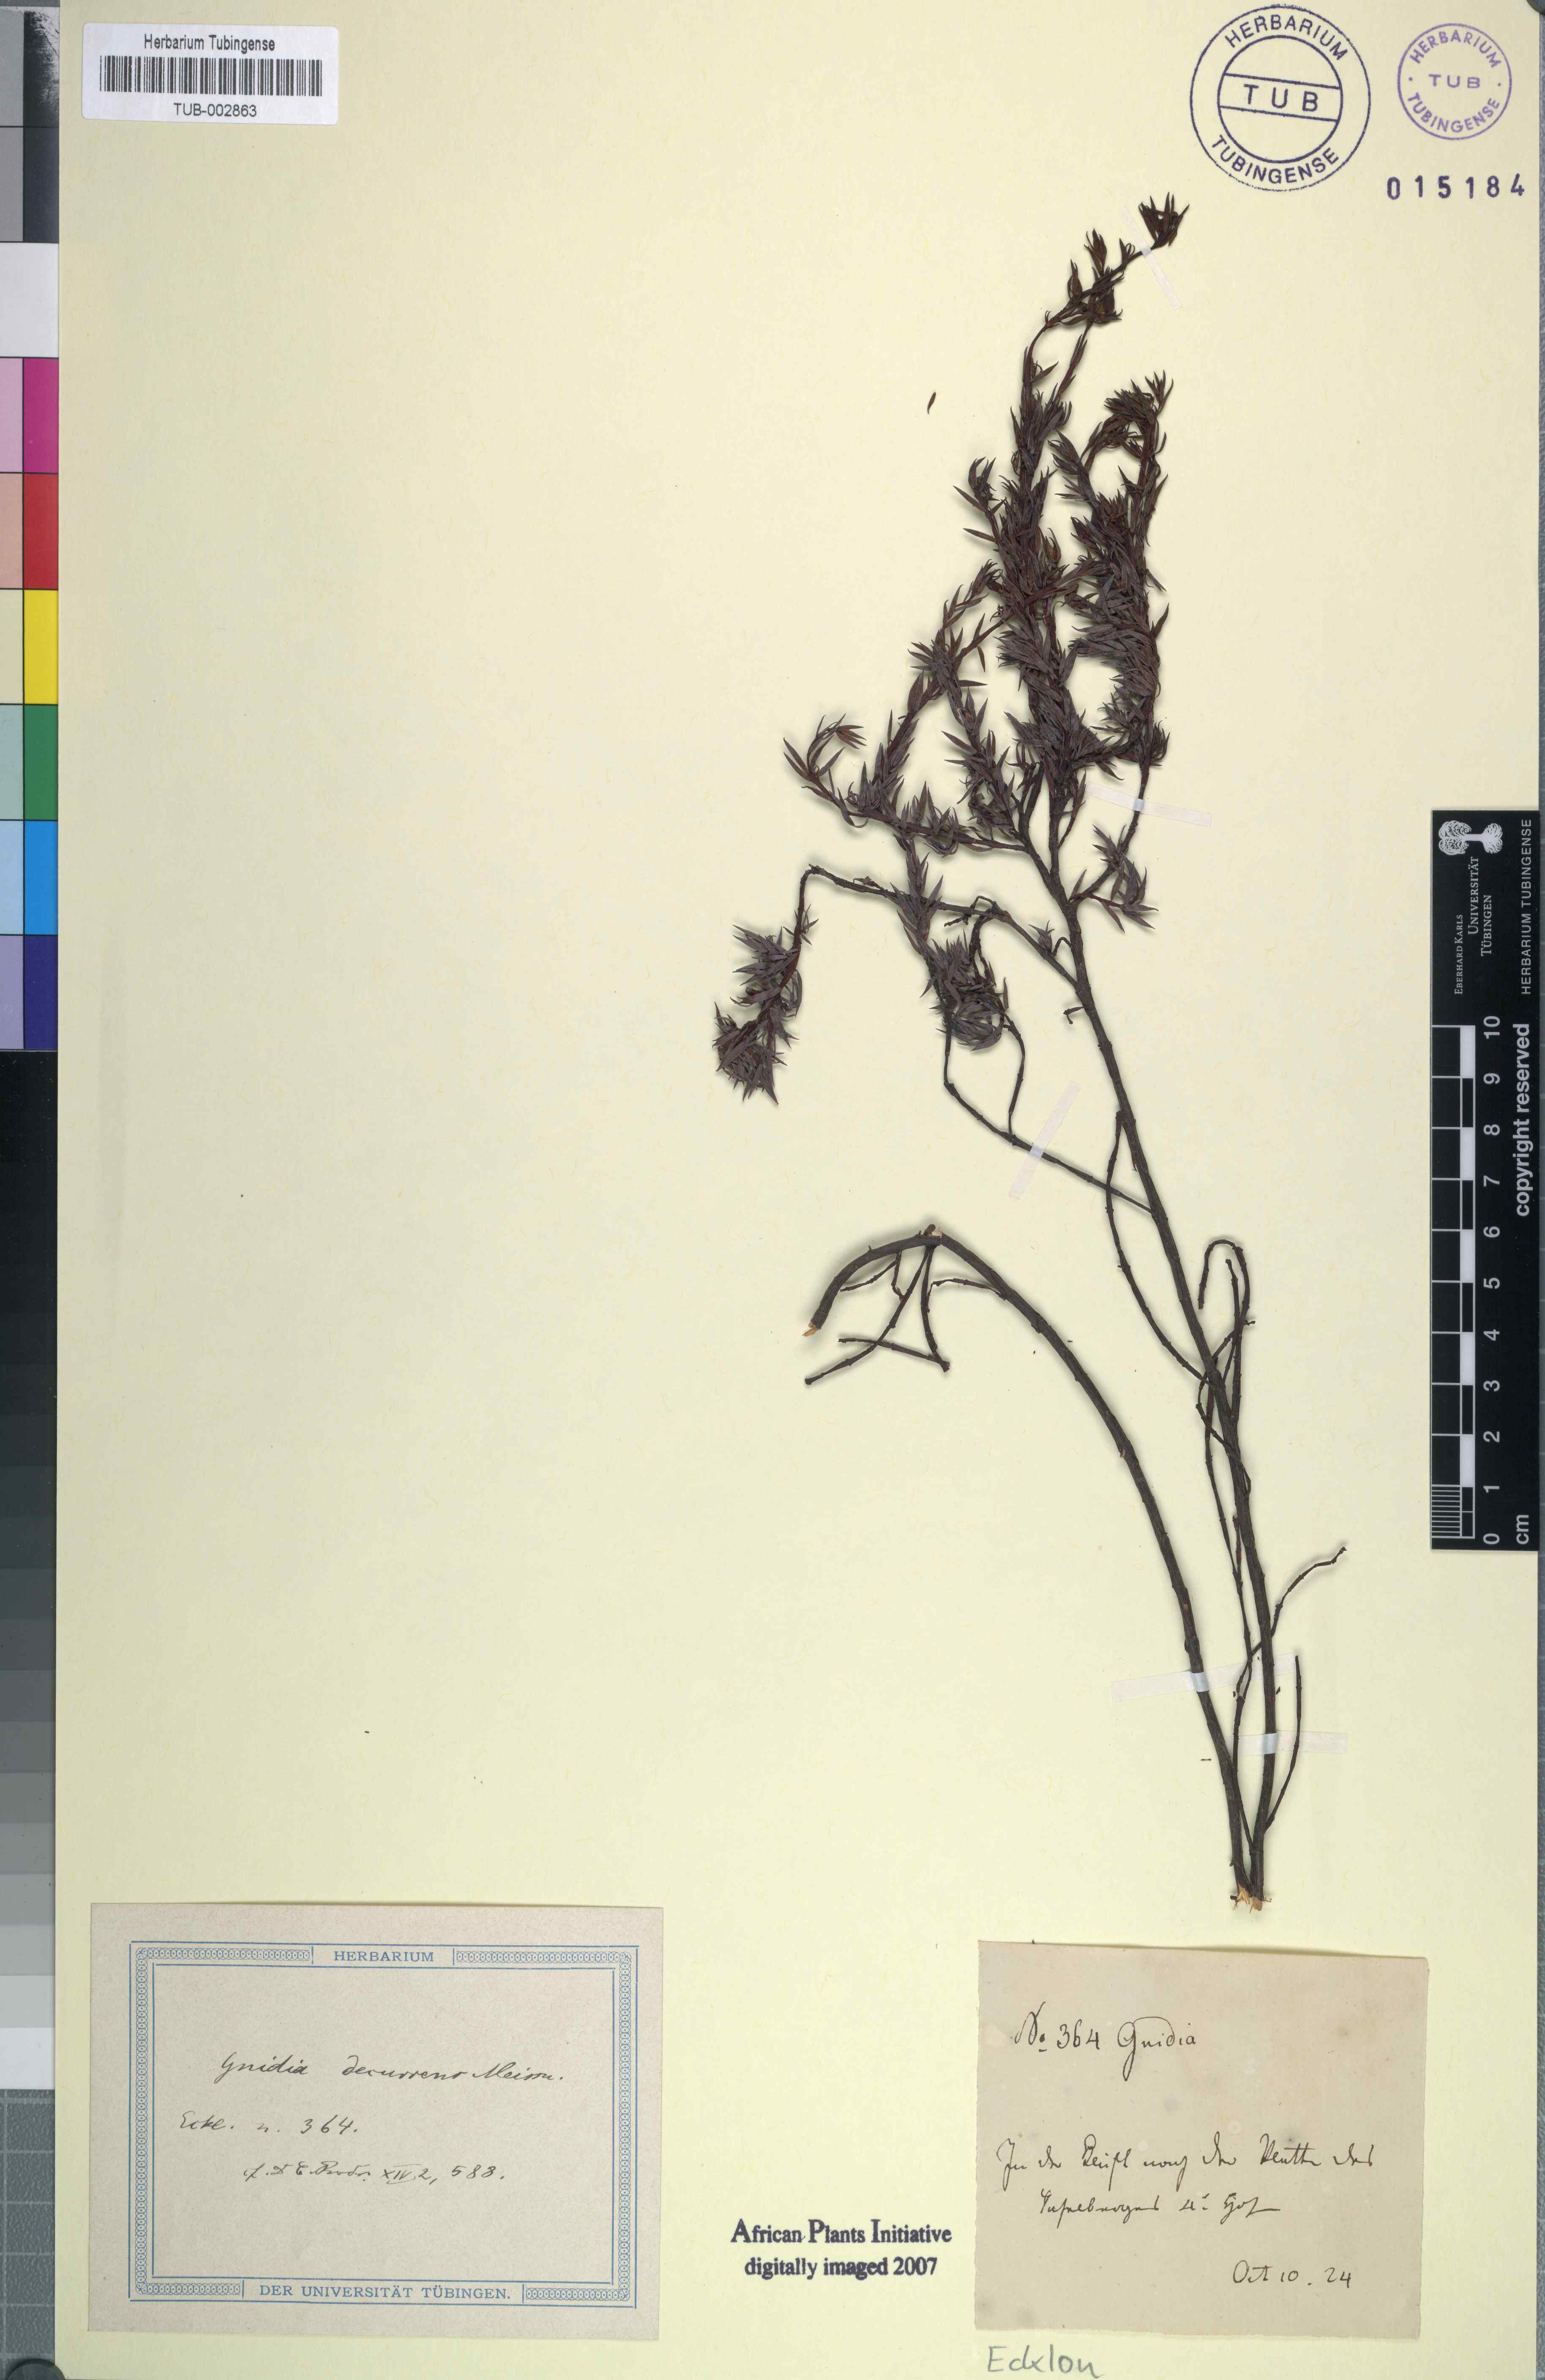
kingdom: Plantae
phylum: Tracheophyta
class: Magnoliopsida
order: Malvales
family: Thymelaeaceae
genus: Gnidia
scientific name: Gnidia decurrens
